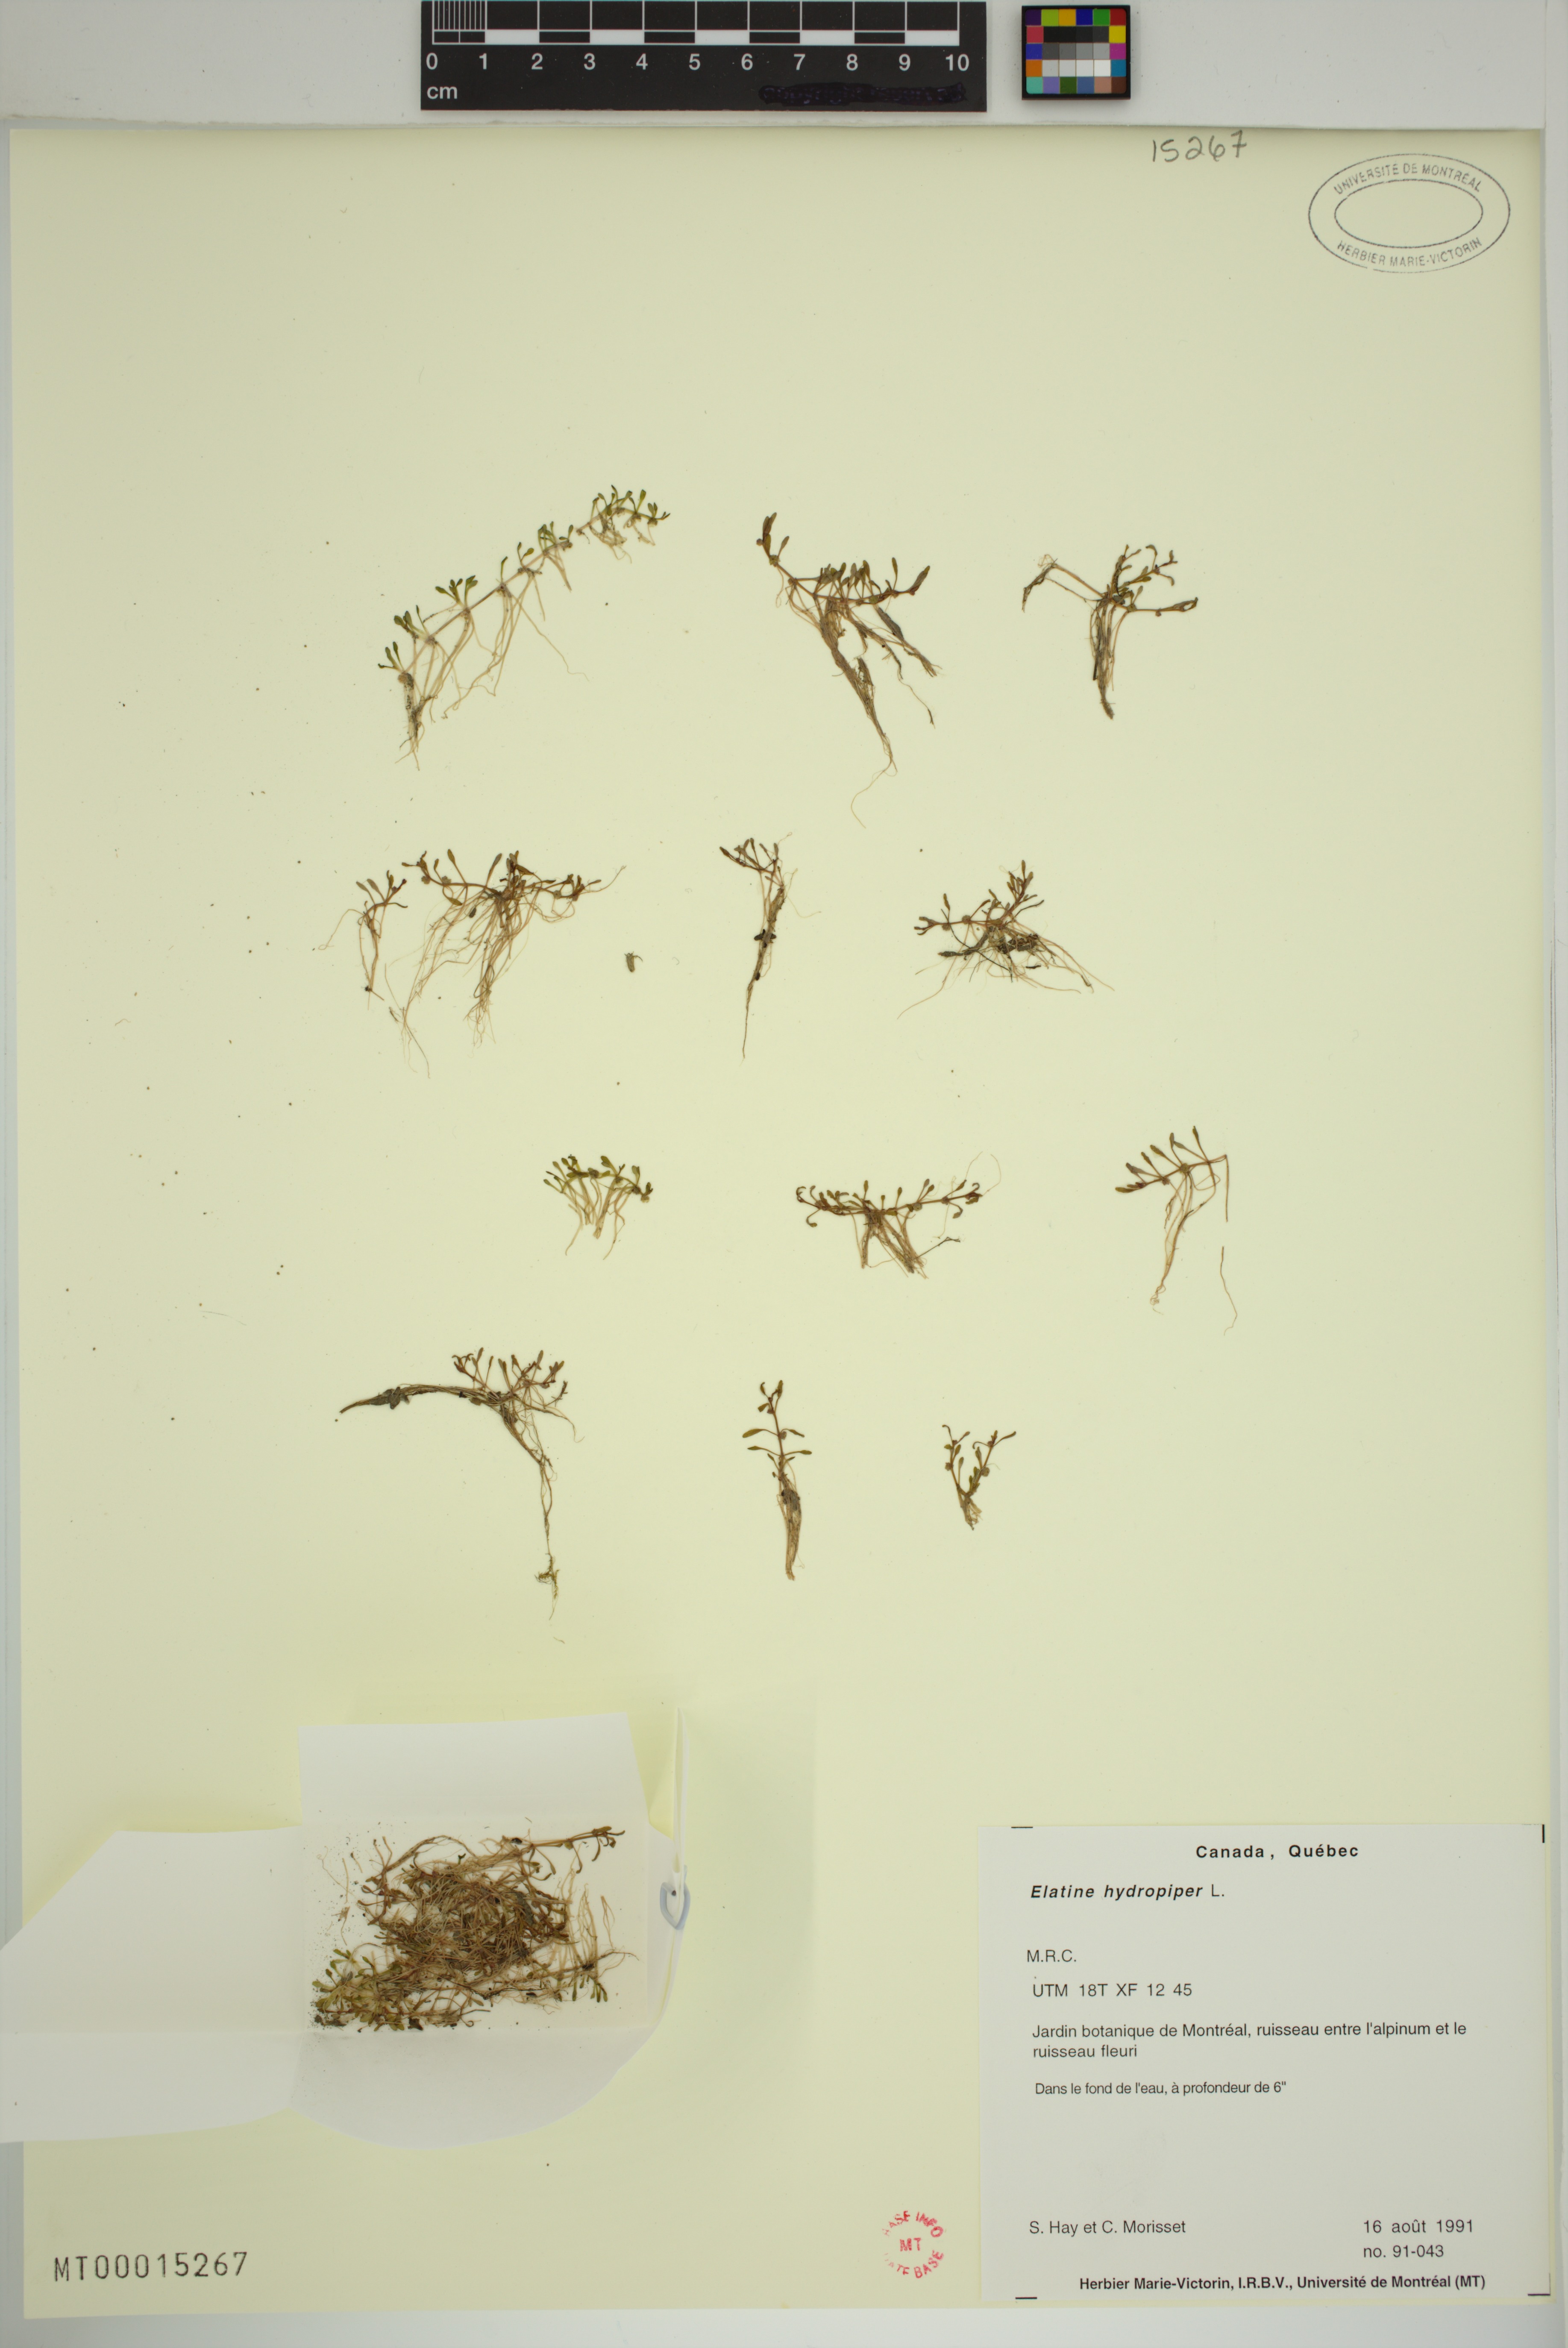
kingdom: Plantae
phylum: Tracheophyta
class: Magnoliopsida
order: Malpighiales
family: Elatinaceae
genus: Elatine
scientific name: Elatine hydropiper
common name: Eight-stamened waterwort
